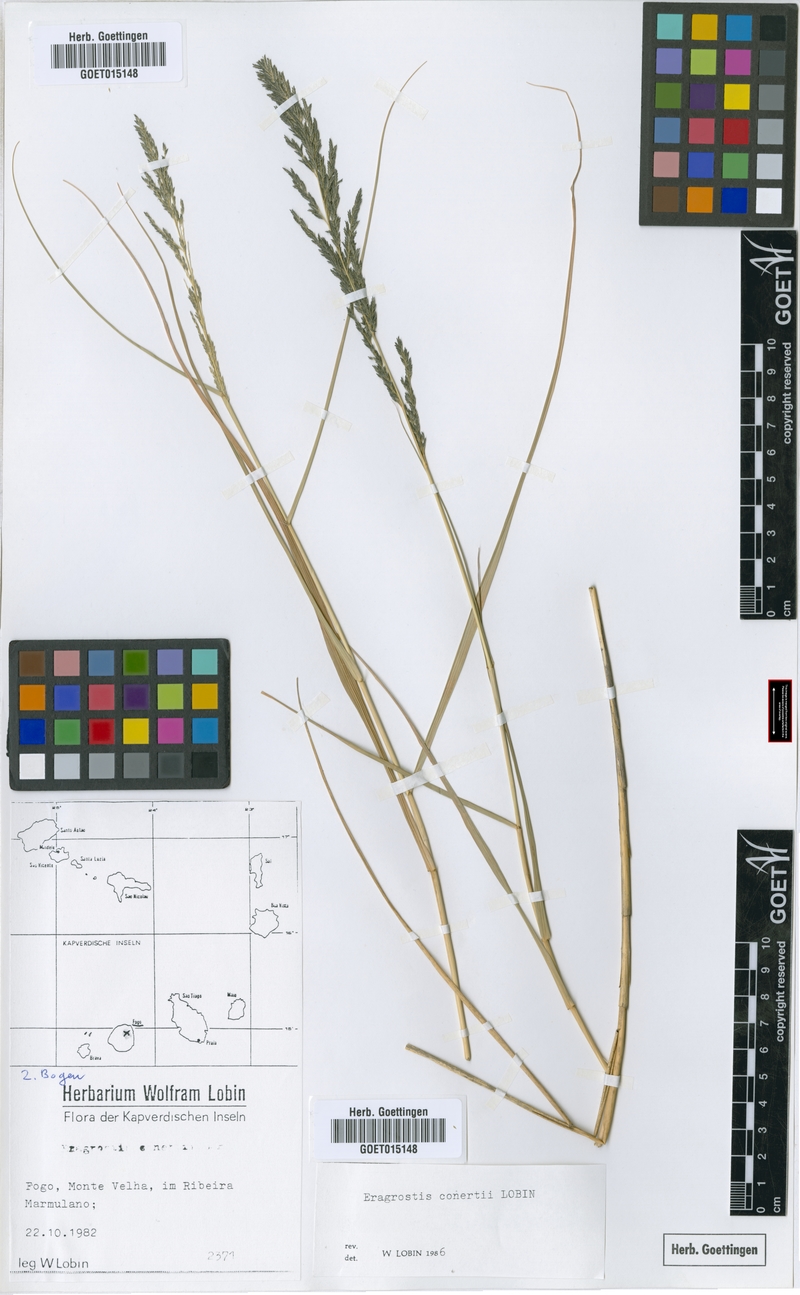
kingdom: Plantae
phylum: Tracheophyta
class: Liliopsida
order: Poales
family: Poaceae
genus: Eragrostis
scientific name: Eragrostis conertii
